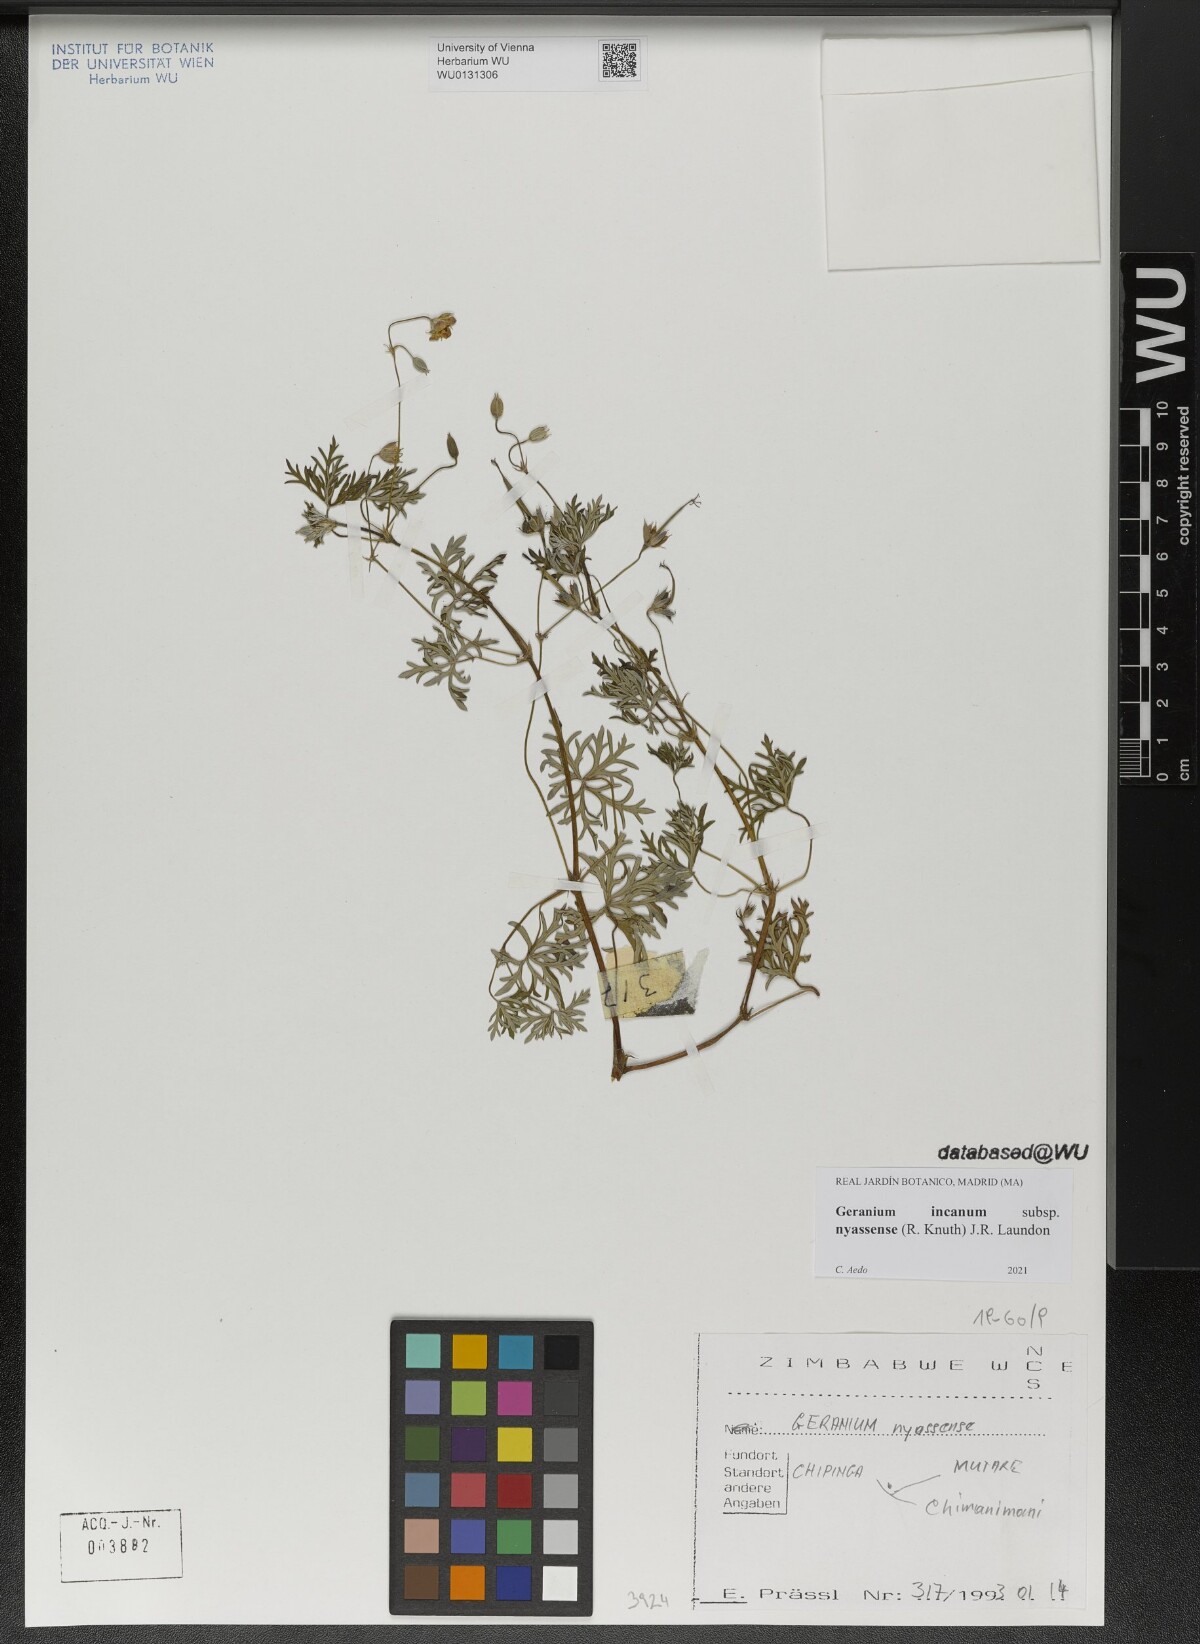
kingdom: Plantae
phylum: Tracheophyta
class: Magnoliopsida
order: Geraniales
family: Geraniaceae
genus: Geranium
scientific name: Geranium nyassense
